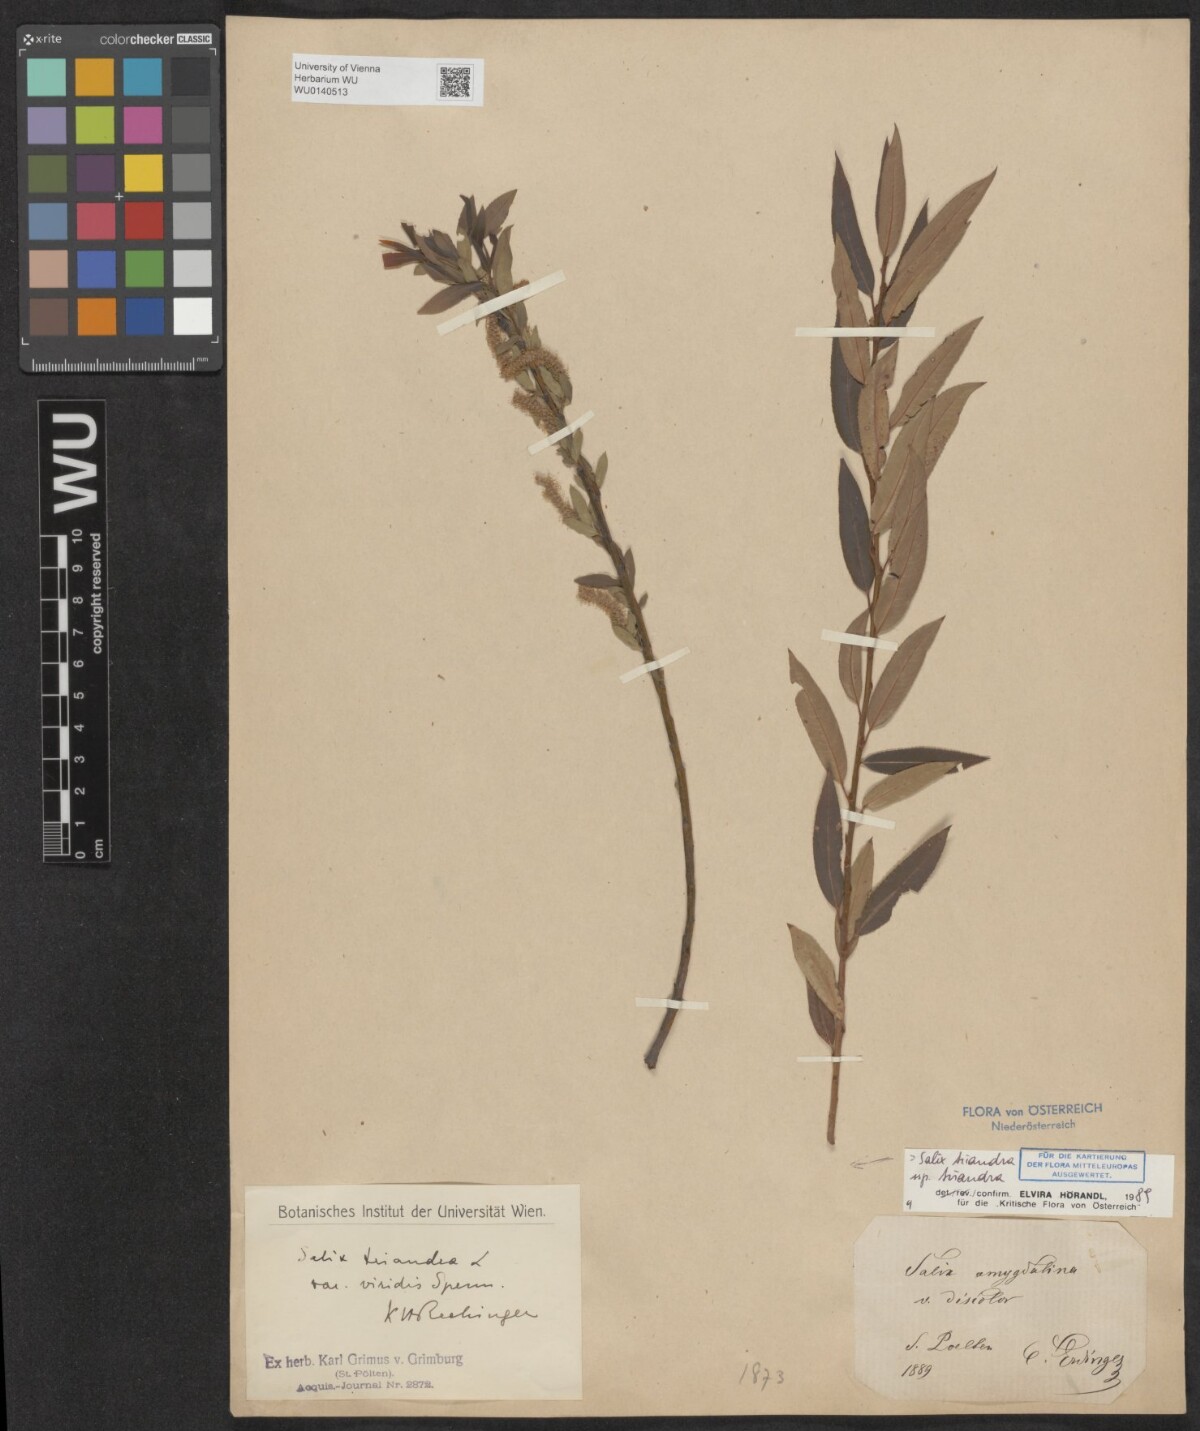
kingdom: Plantae
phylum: Tracheophyta
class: Magnoliopsida
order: Malpighiales
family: Salicaceae
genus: Salix
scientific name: Salix triandra
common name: Almond willow
